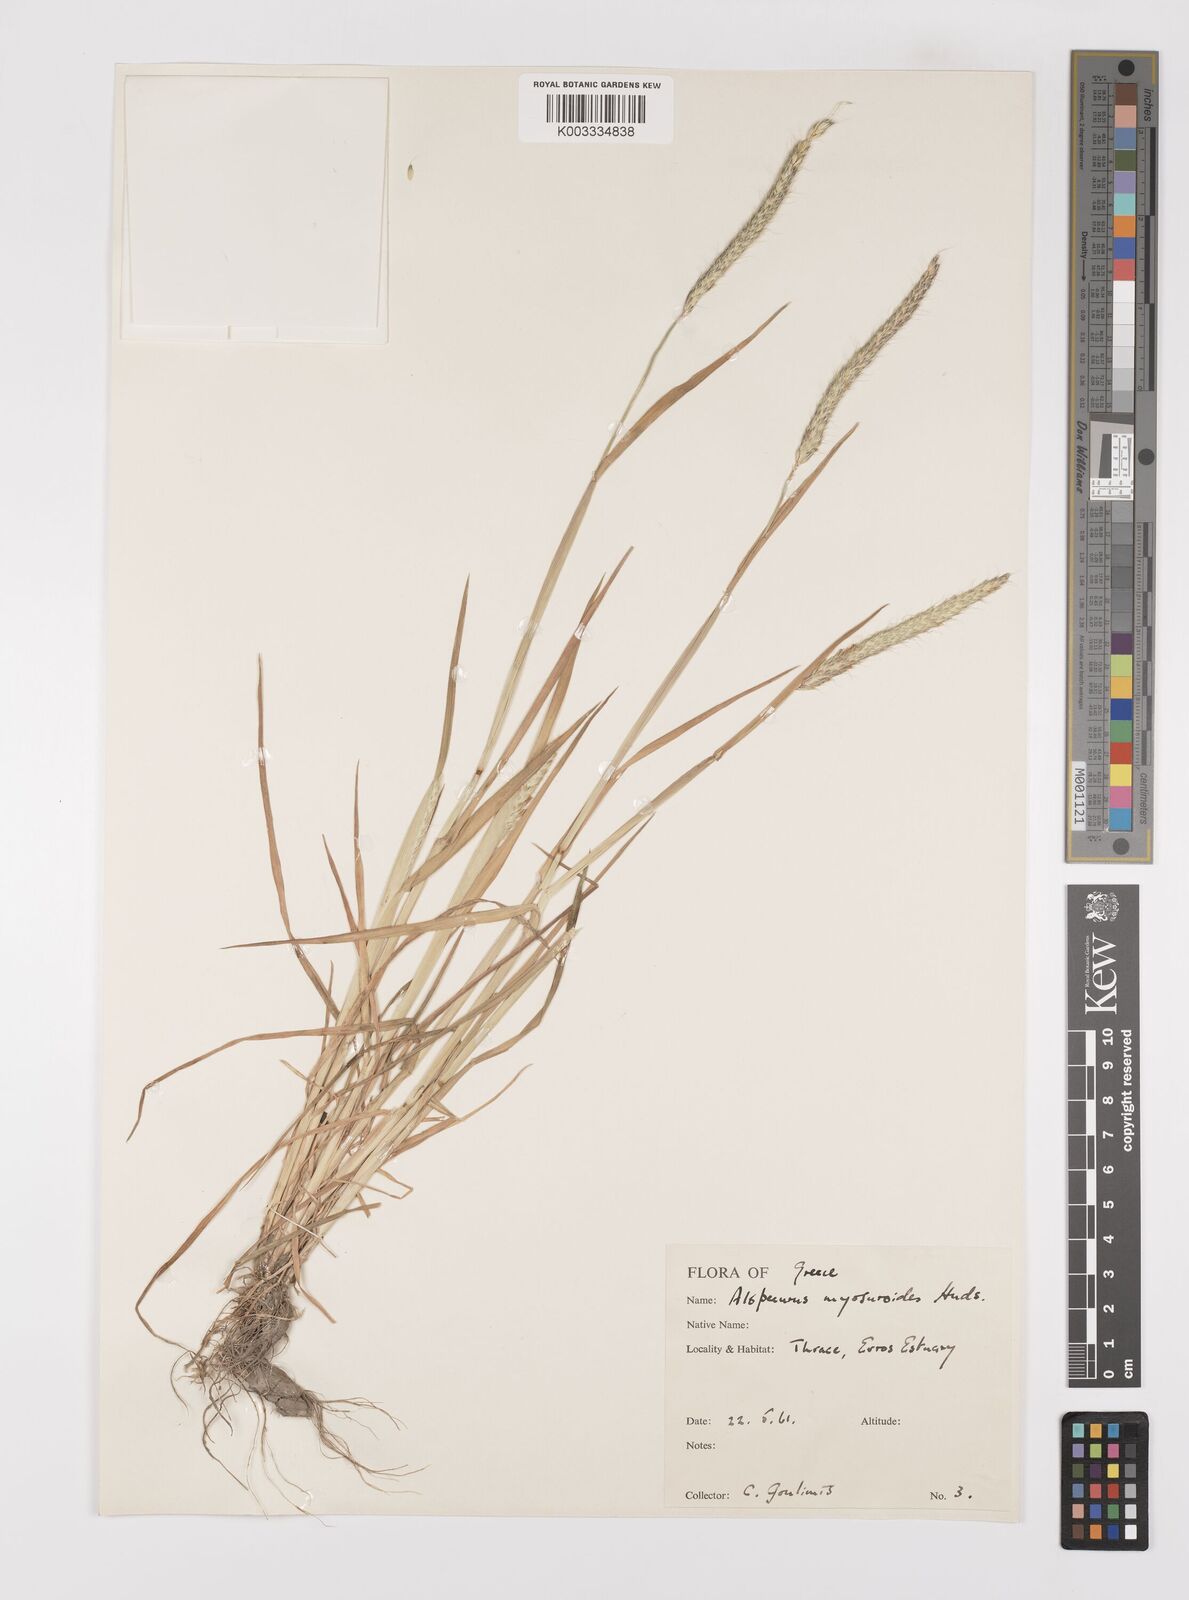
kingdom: Plantae
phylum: Tracheophyta
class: Liliopsida
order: Poales
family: Poaceae
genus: Alopecurus
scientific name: Alopecurus myosuroides
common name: Black-grass
